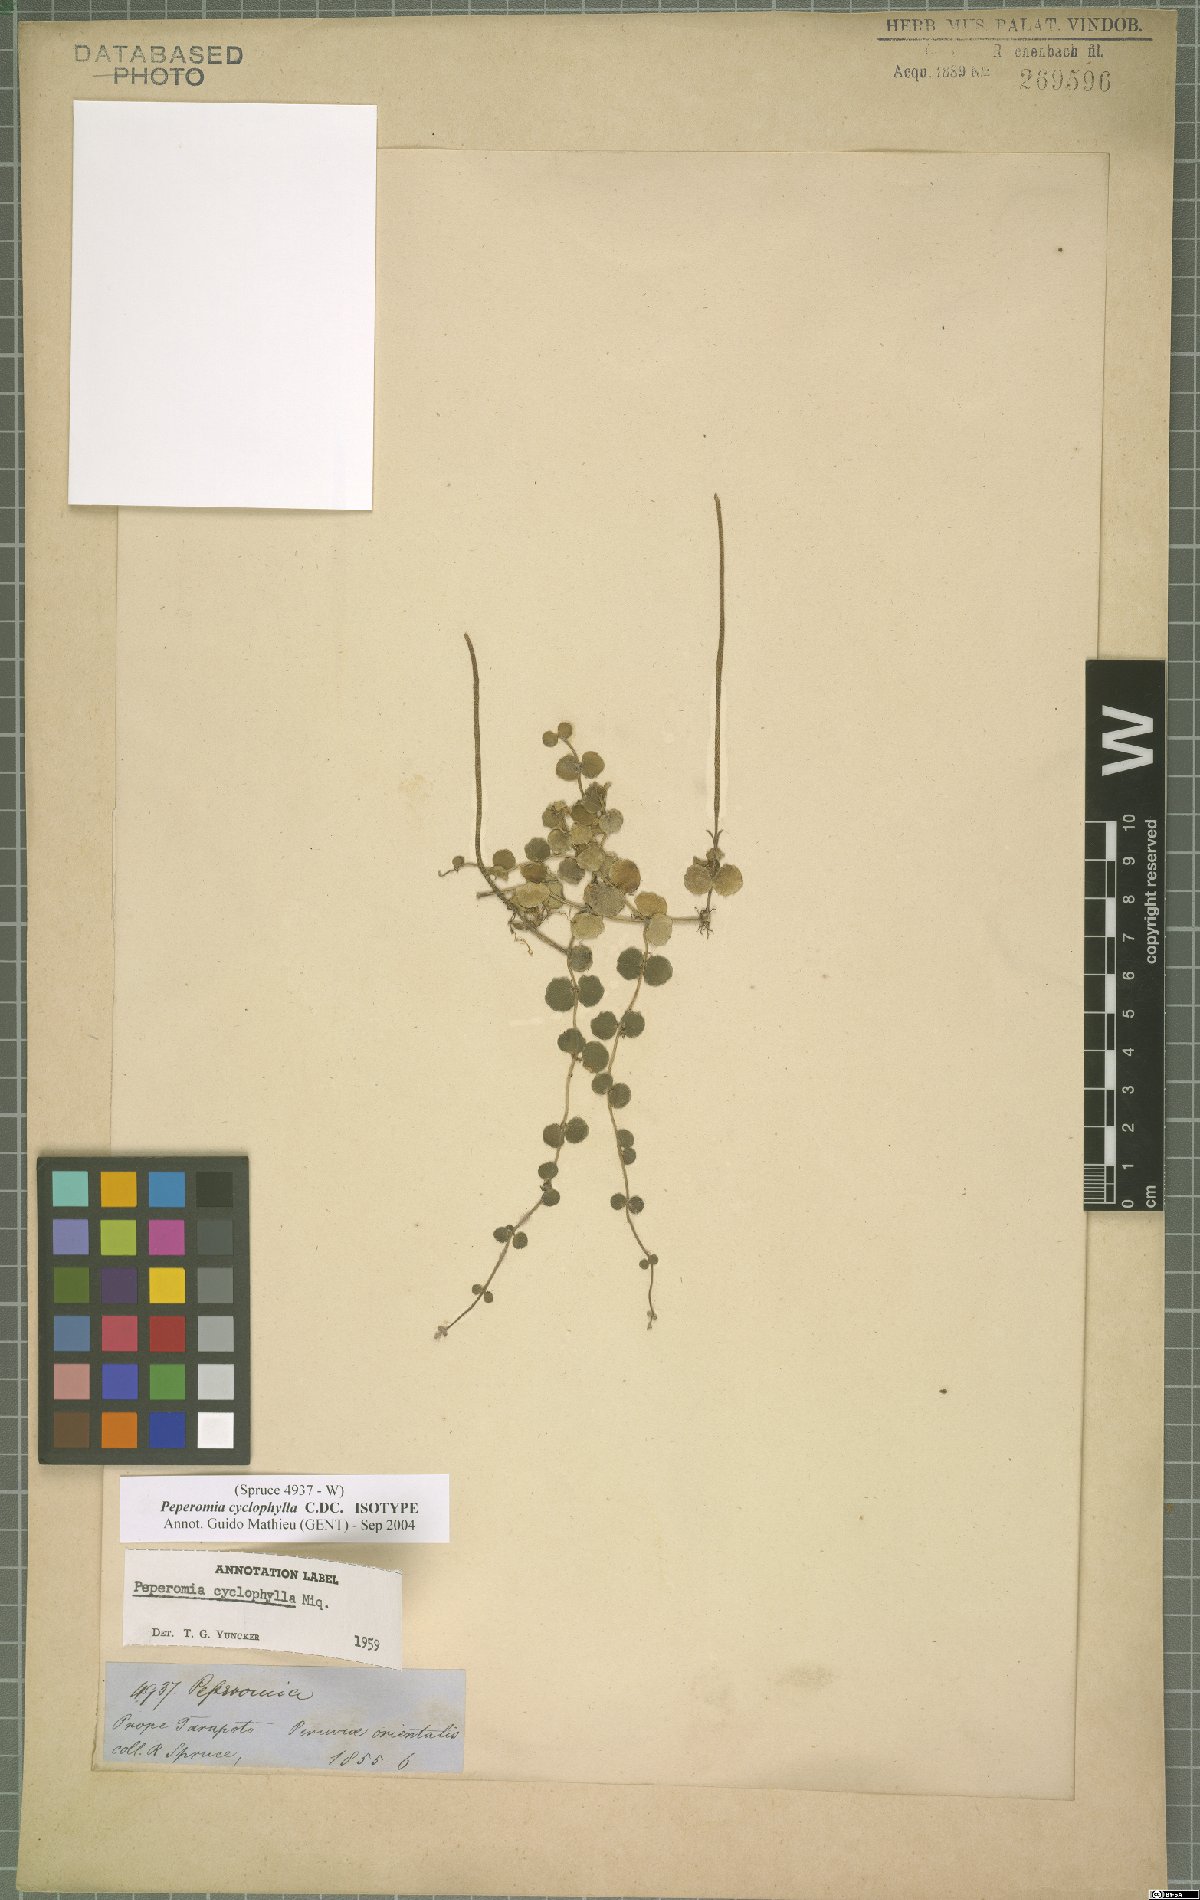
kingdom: Plantae
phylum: Tracheophyta
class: Magnoliopsida
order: Piperales
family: Piperaceae
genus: Peperomia
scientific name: Peperomia cyclophylla
